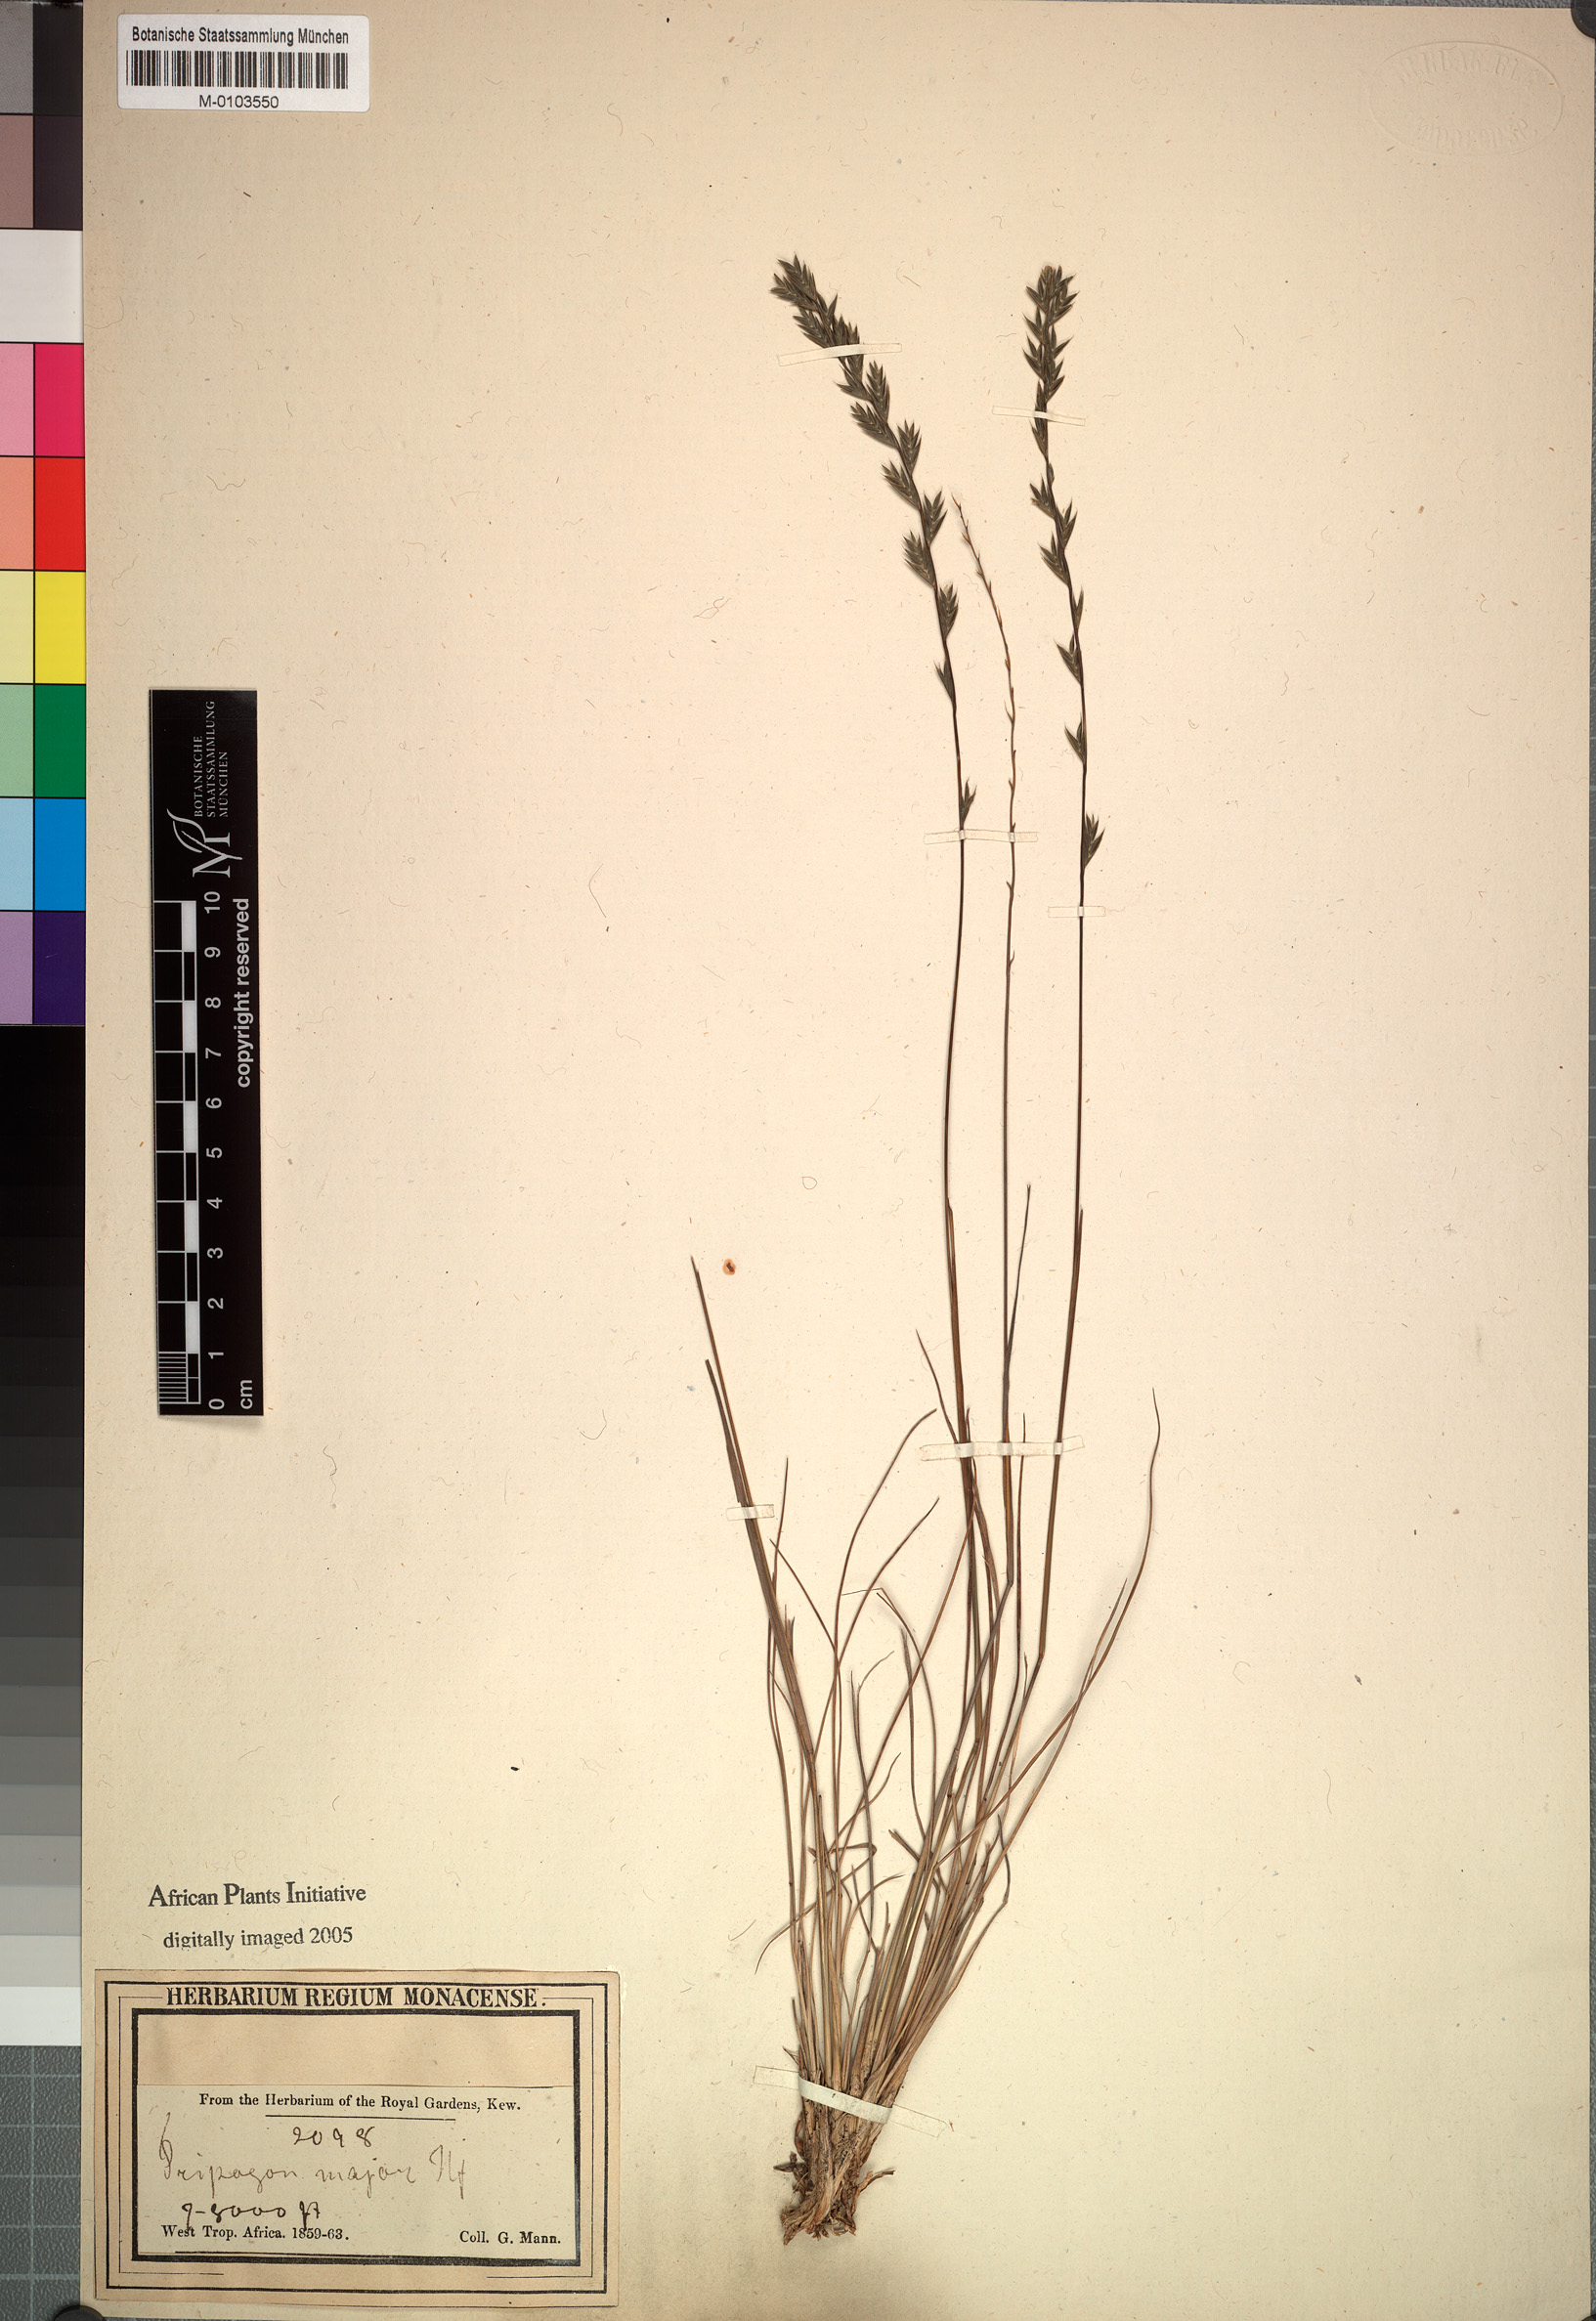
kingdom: Plantae
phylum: Tracheophyta
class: Liliopsida
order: Poales
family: Poaceae
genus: Tripogon
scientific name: Tripogon major
